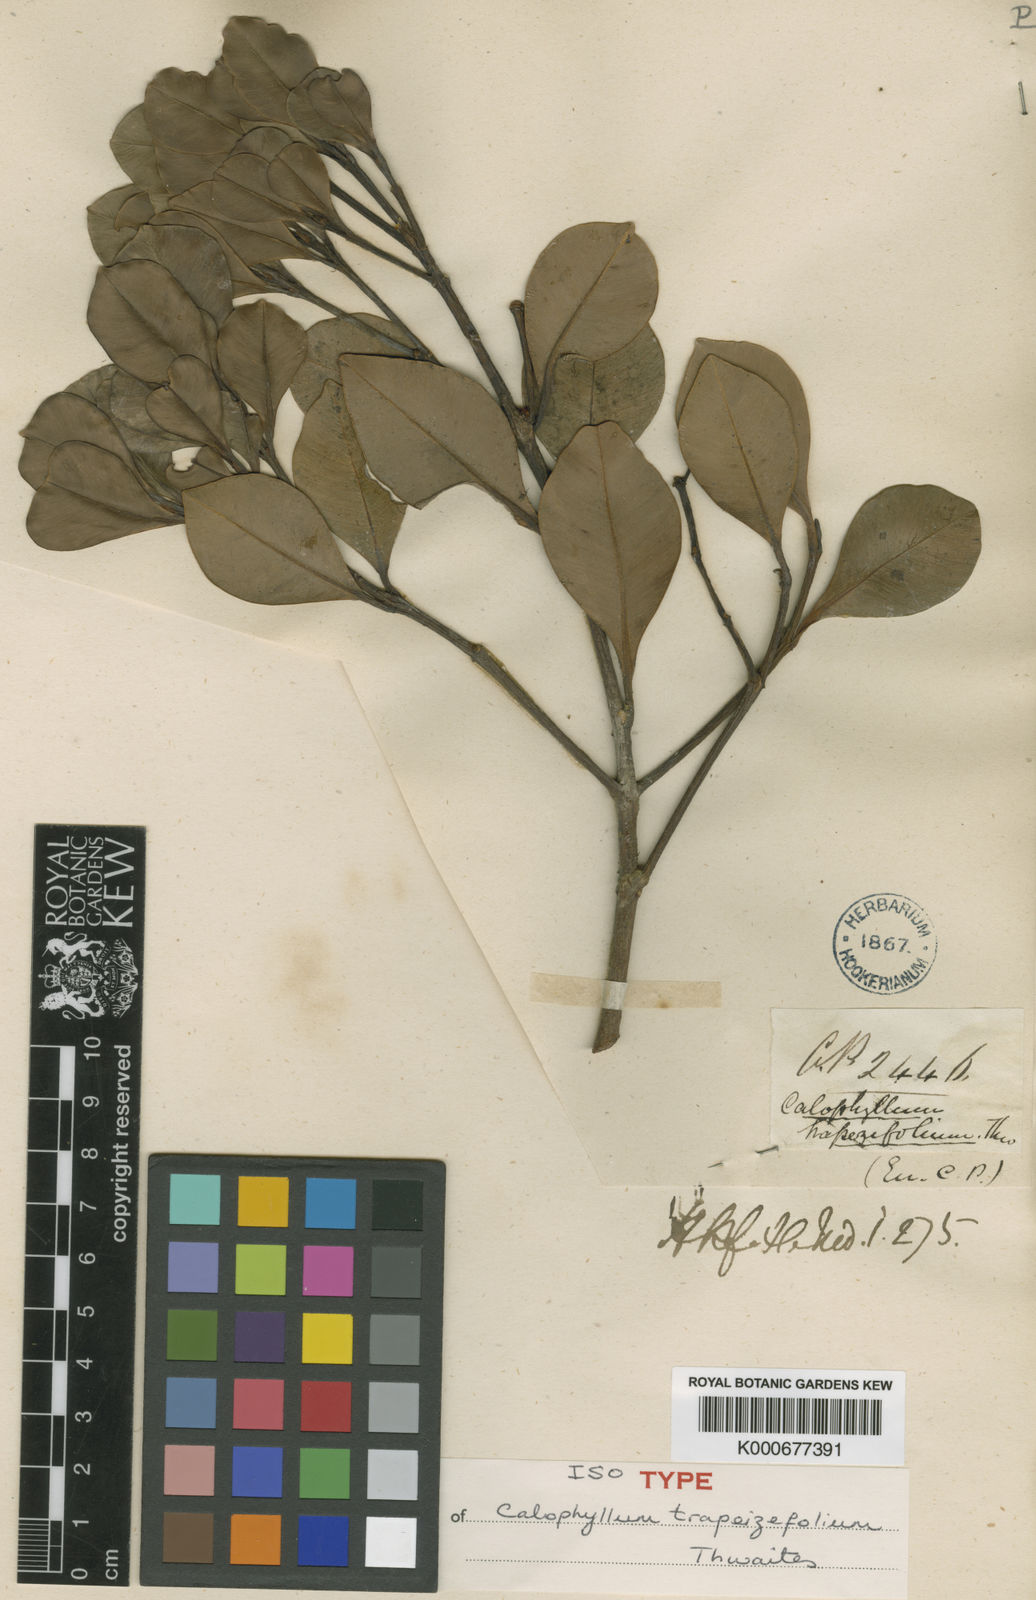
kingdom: Plantae
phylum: Tracheophyta
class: Magnoliopsida
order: Malpighiales
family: Calophyllaceae
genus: Calophyllum
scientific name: Calophyllum trapezifolium
